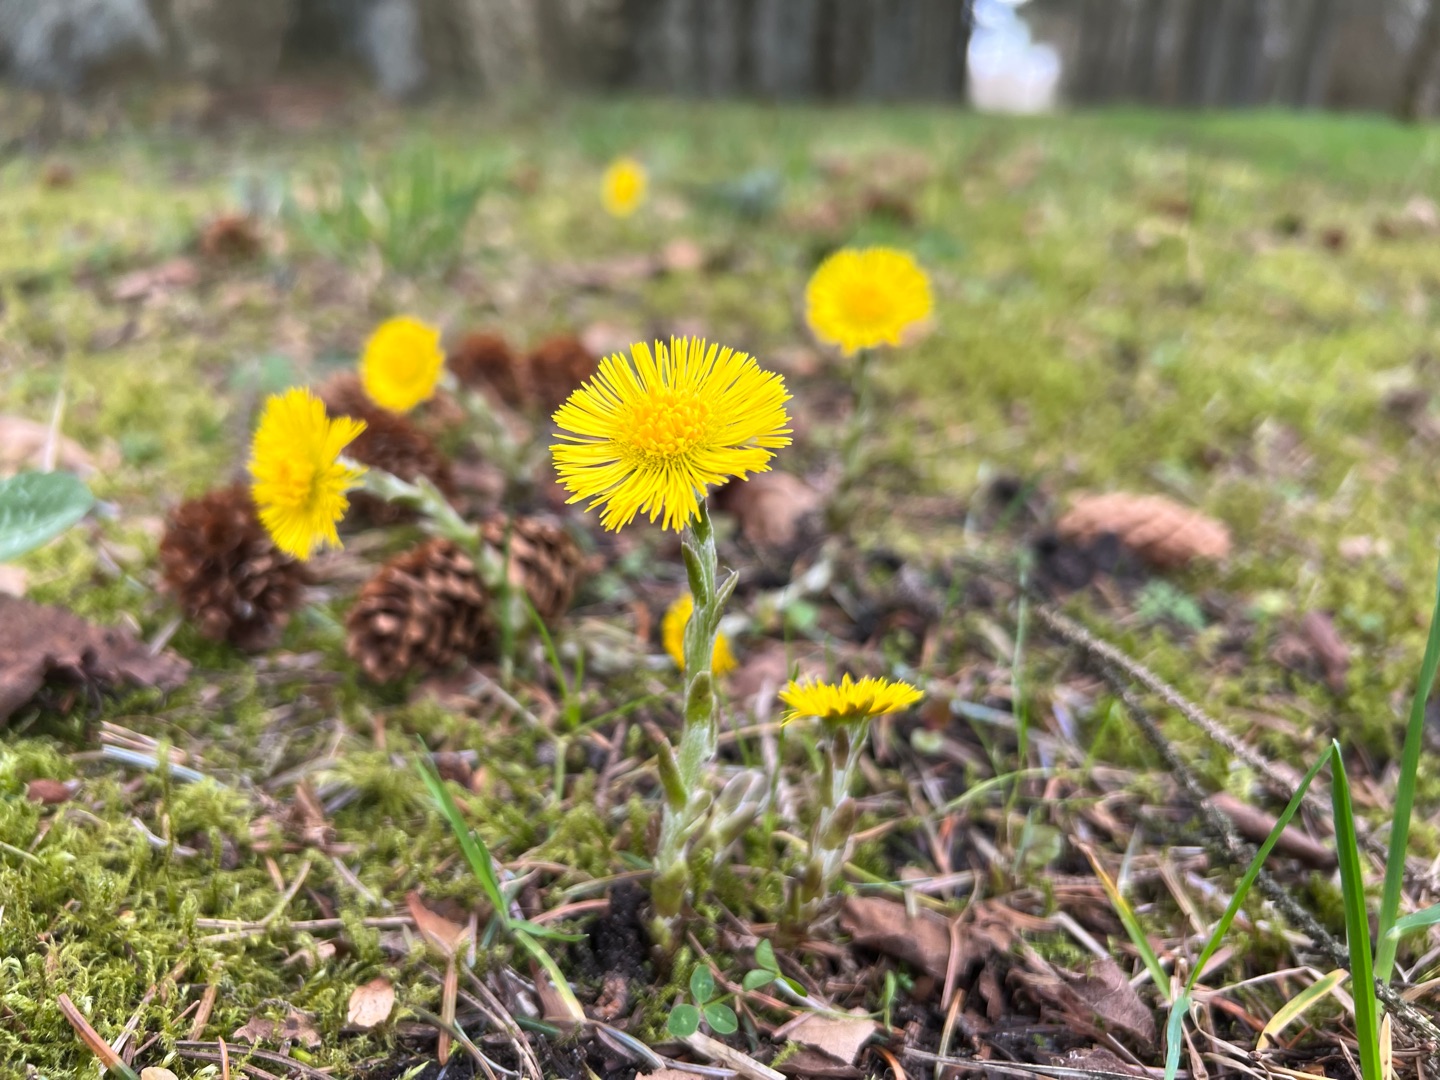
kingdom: Plantae
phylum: Tracheophyta
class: Magnoliopsida
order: Asterales
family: Asteraceae
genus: Tussilago
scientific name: Tussilago farfara
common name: Følfod
